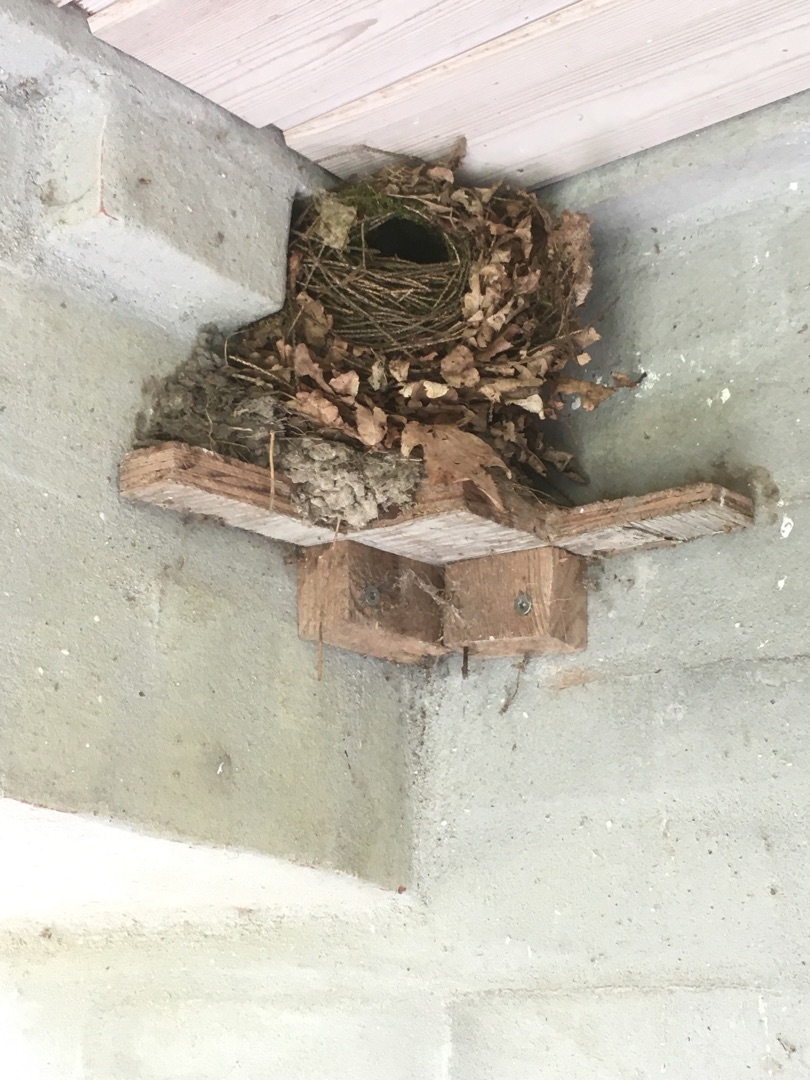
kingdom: Animalia
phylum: Chordata
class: Aves
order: Passeriformes
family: Troglodytidae
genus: Troglodytes
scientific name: Troglodytes troglodytes
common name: Gærdesmutte
